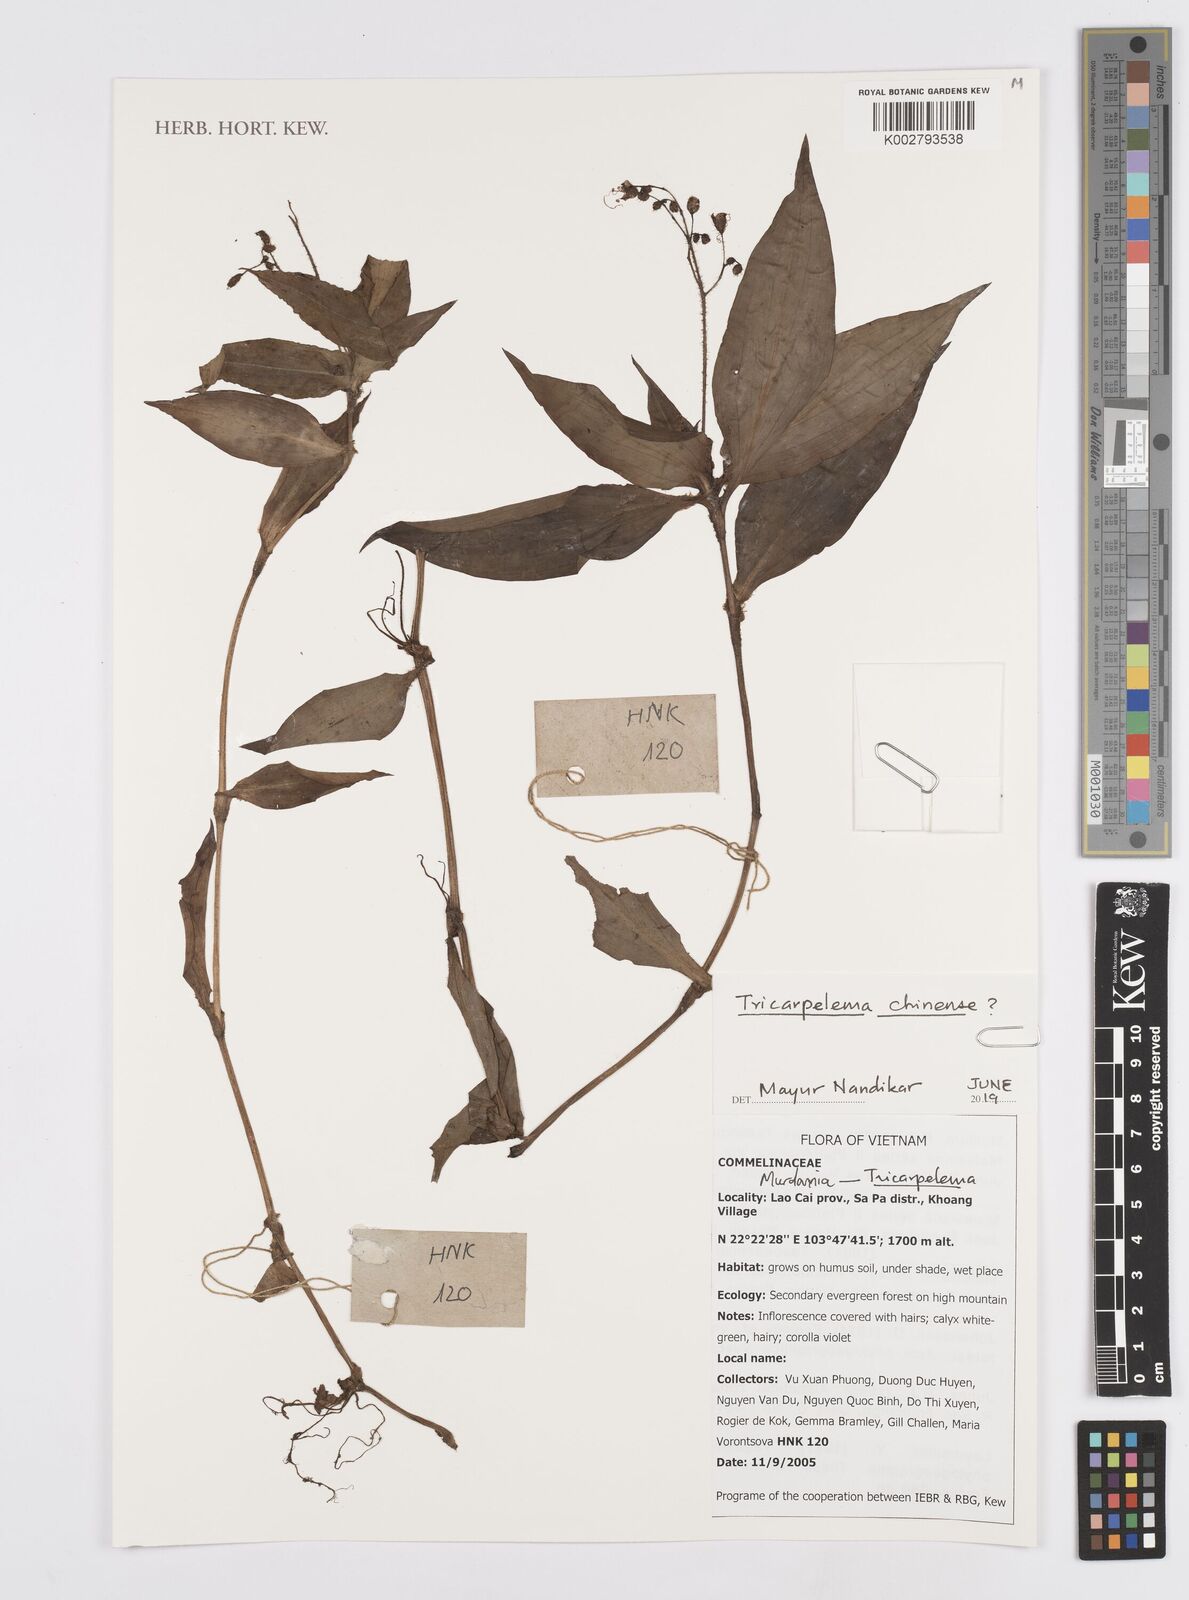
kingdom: Plantae
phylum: Tracheophyta
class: Liliopsida
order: Commelinales
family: Commelinaceae
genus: Murdannia
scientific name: Murdannia
